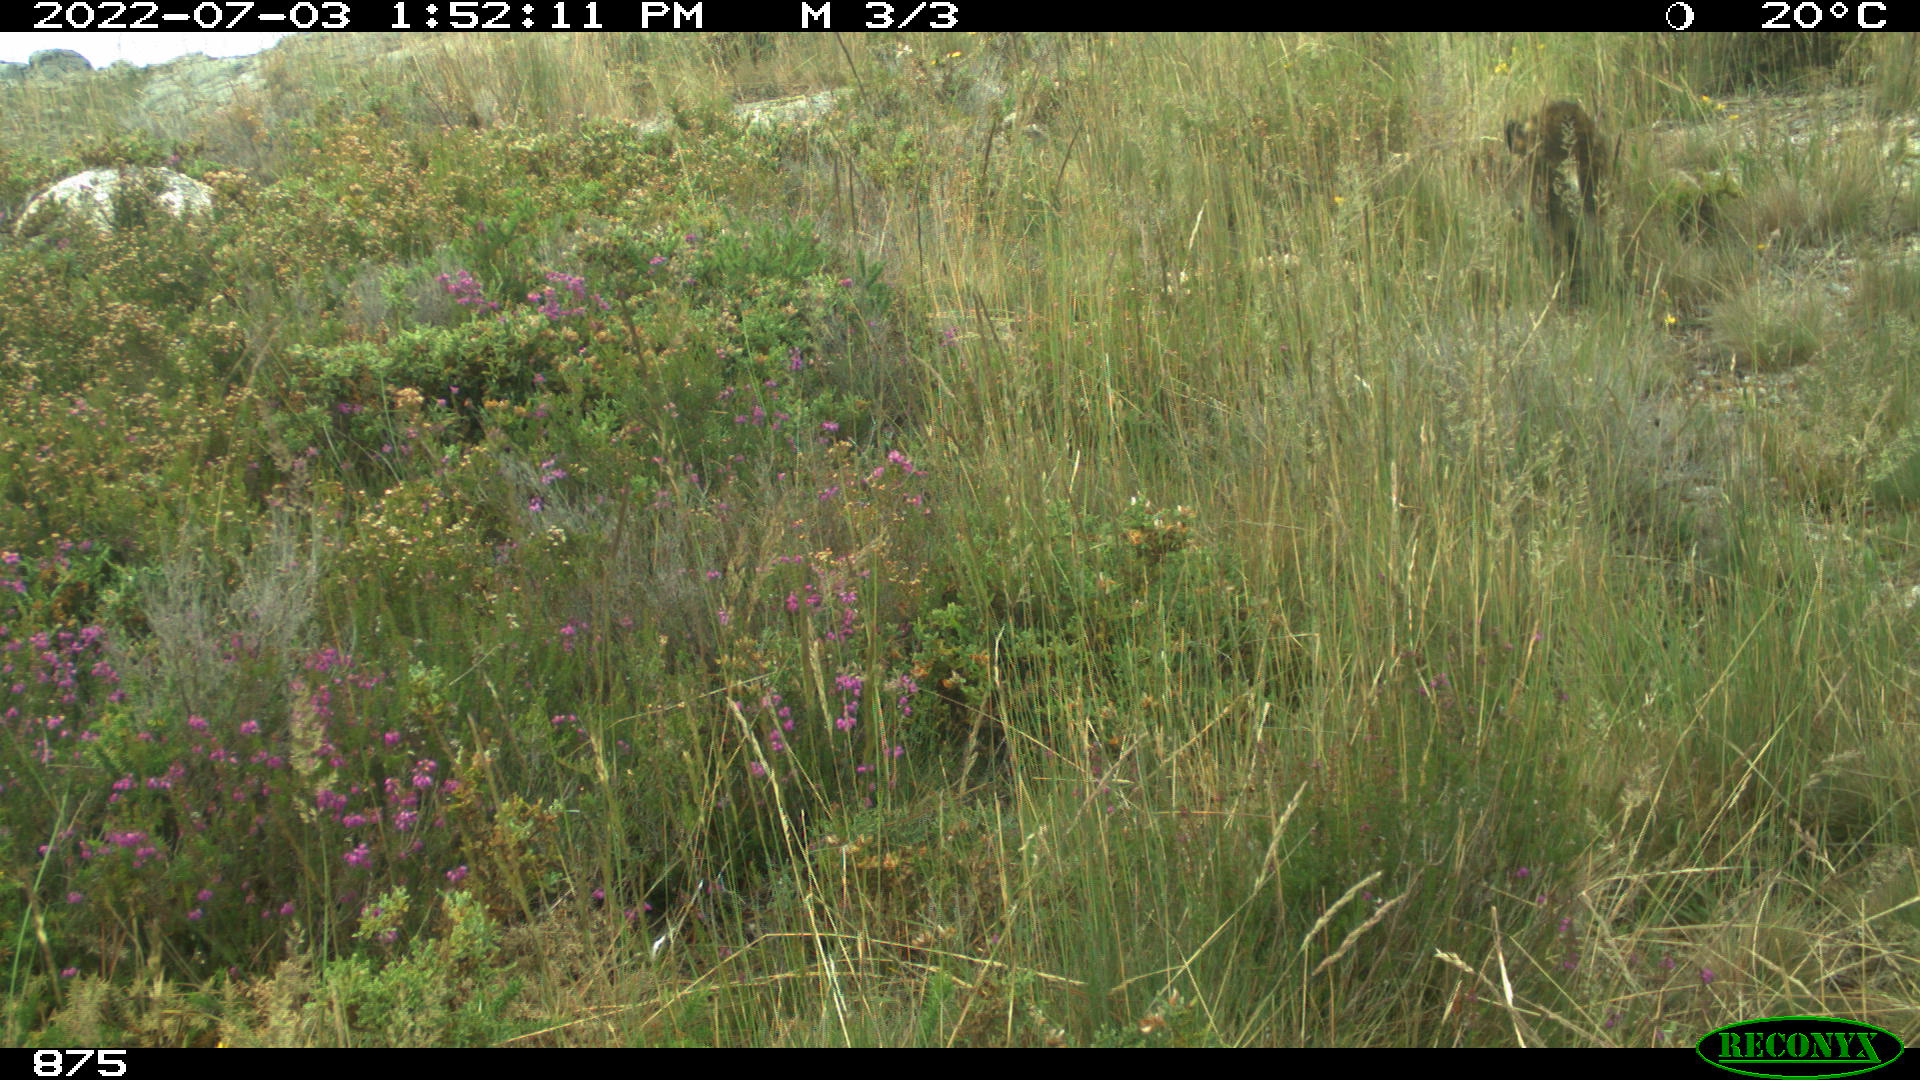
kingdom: Animalia
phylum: Chordata
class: Mammalia
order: Artiodactyla
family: Suidae
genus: Sus
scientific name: Sus scrofa
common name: Wild boar
